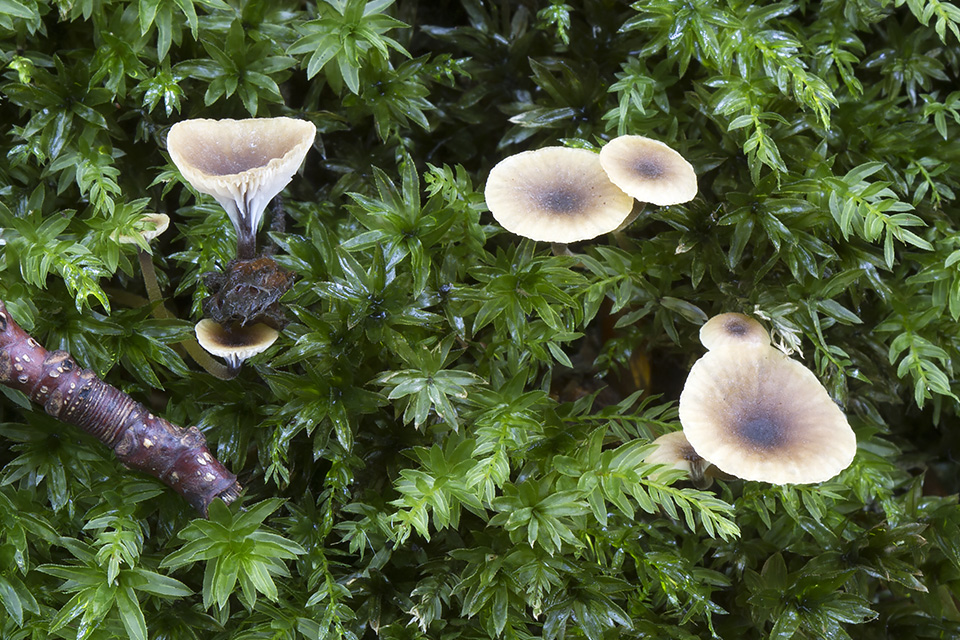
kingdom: Fungi
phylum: Basidiomycota
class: Agaricomycetes
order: Hymenochaetales
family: Rickenellaceae
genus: Rickenella
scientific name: Rickenella swartzii
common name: finstokket mosnavlehat
